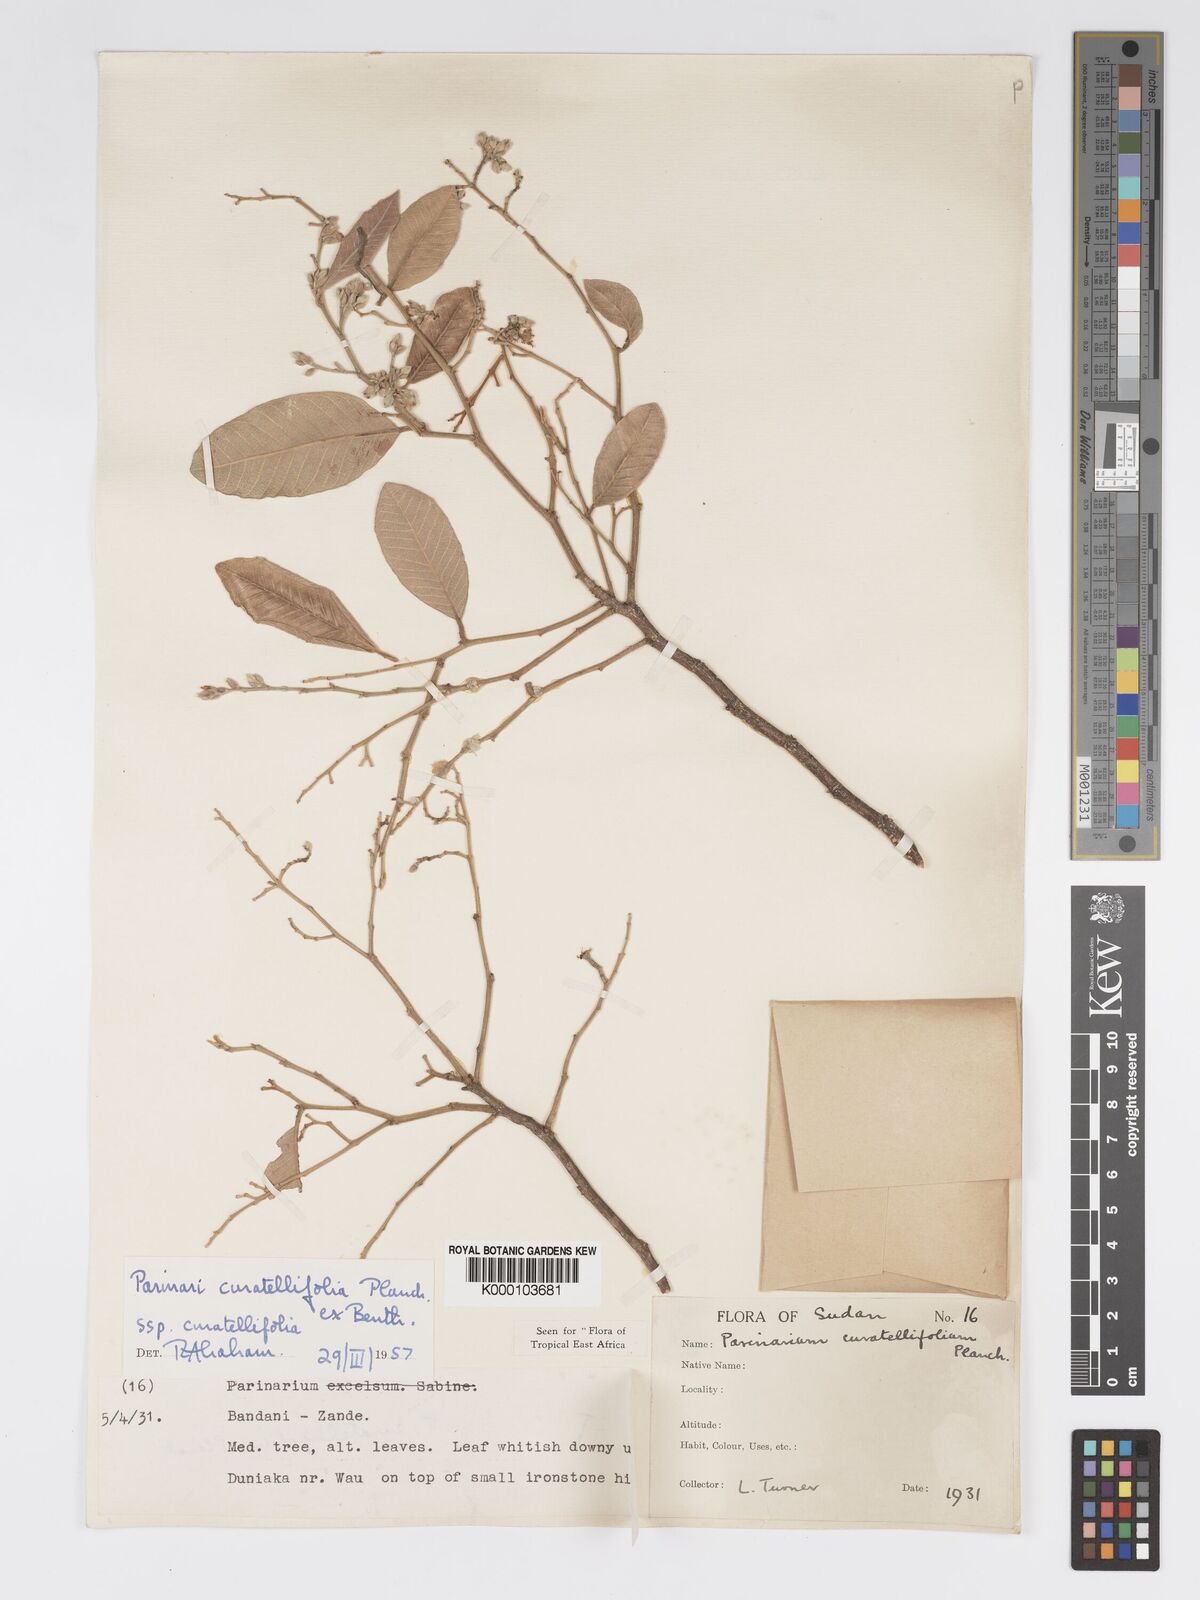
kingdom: Plantae
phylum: Tracheophyta
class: Magnoliopsida
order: Malpighiales
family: Chrysobalanaceae
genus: Parinari
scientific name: Parinari curatellifolia
